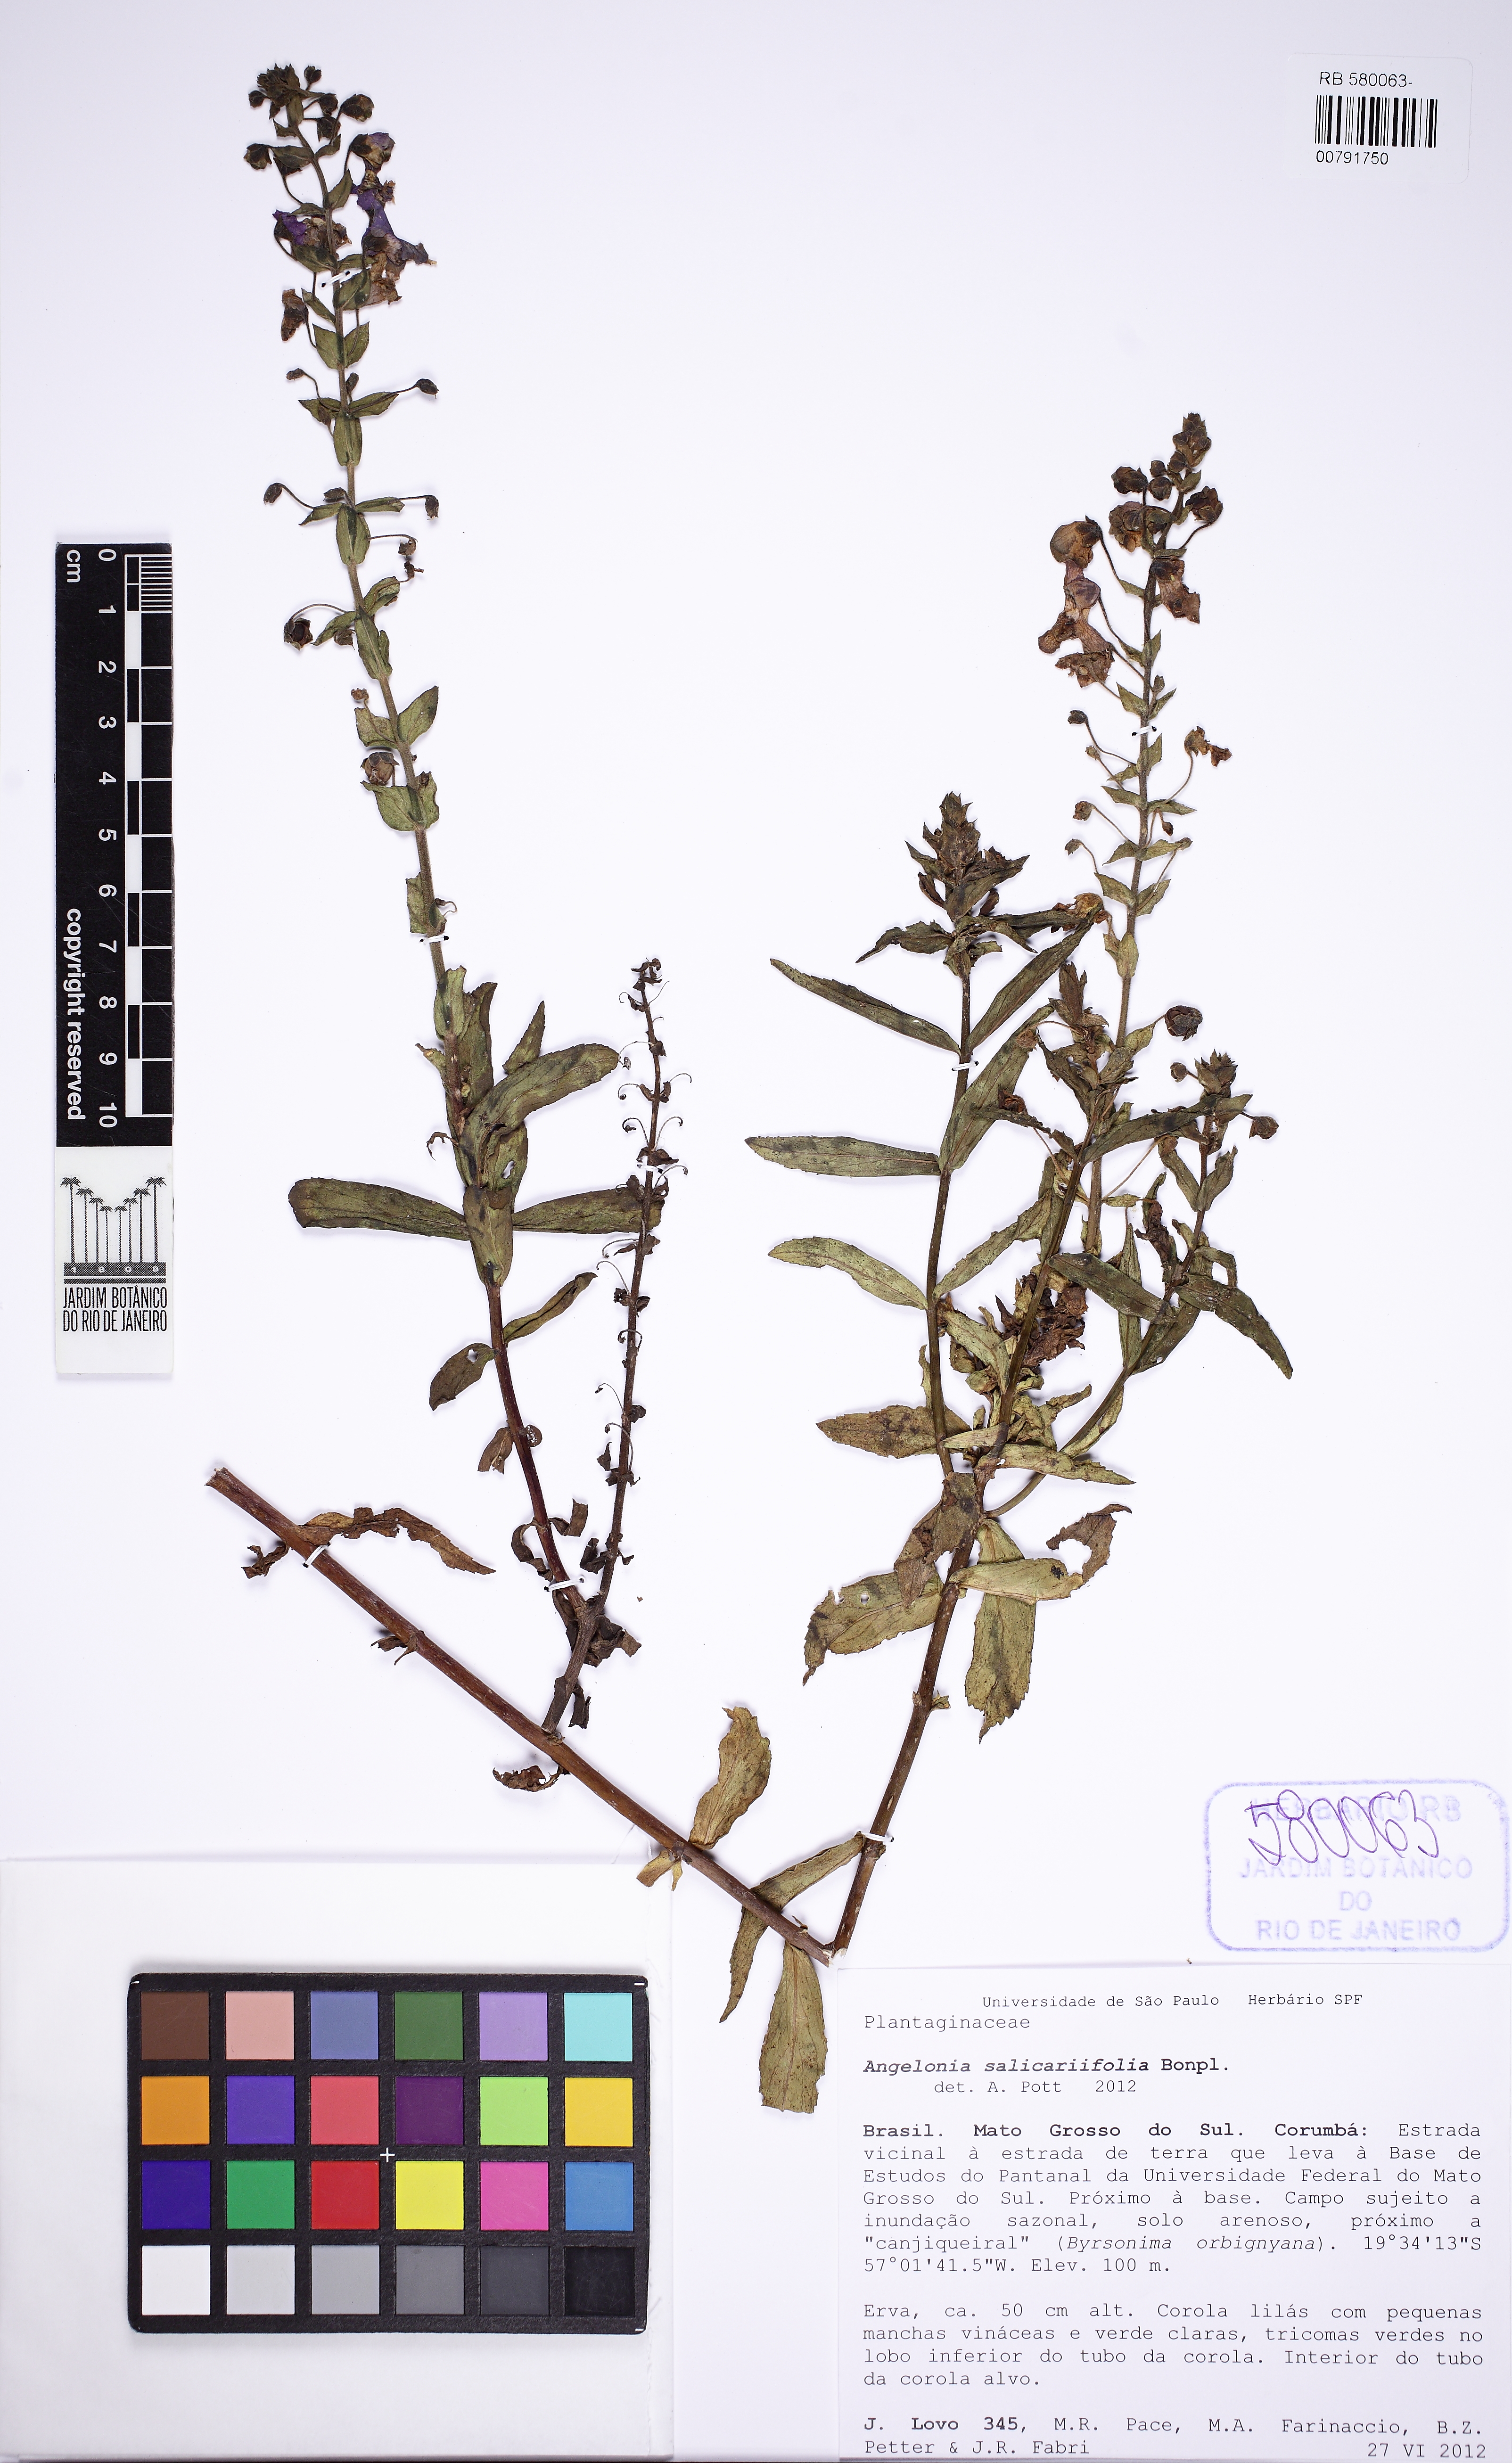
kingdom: Plantae
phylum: Tracheophyta
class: Magnoliopsida
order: Lamiales
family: Plantaginaceae
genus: Angelonia
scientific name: Angelonia salicariifolia
